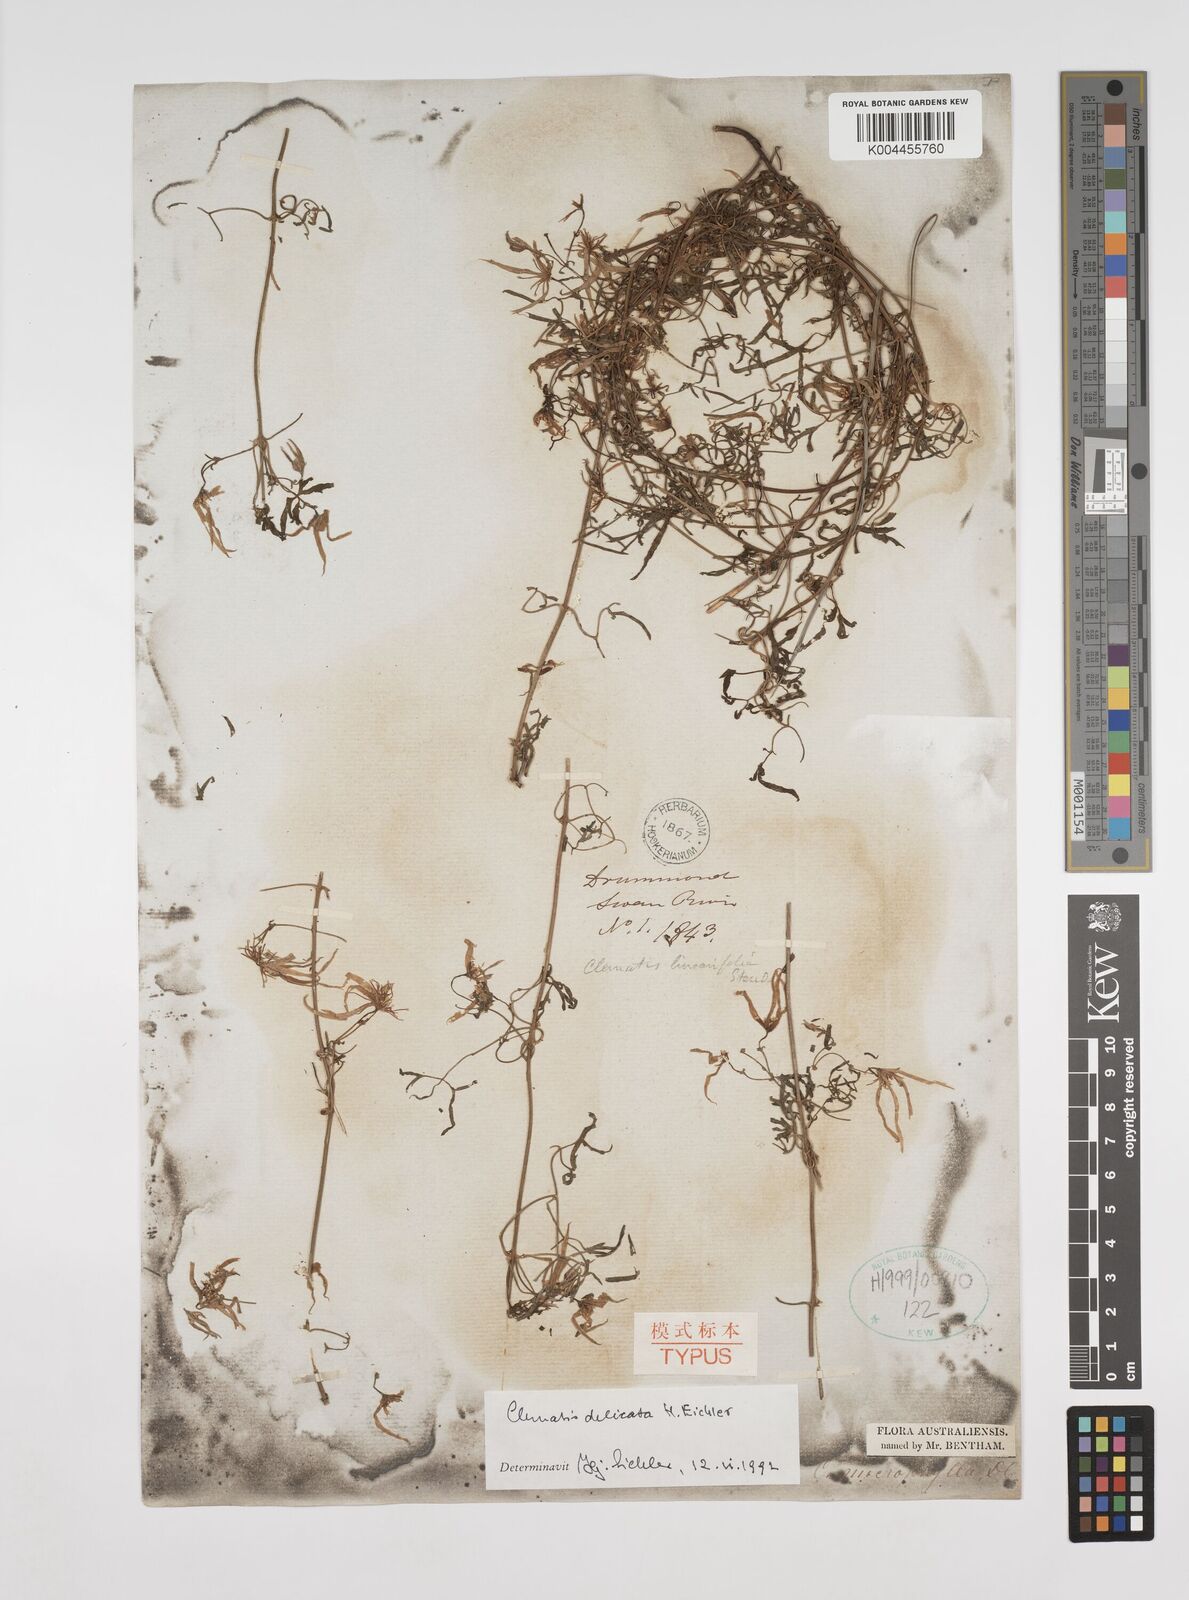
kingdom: Plantae
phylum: Tracheophyta
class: Magnoliopsida
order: Ranunculales
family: Ranunculaceae
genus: Clematis
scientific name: Clematis delicata
